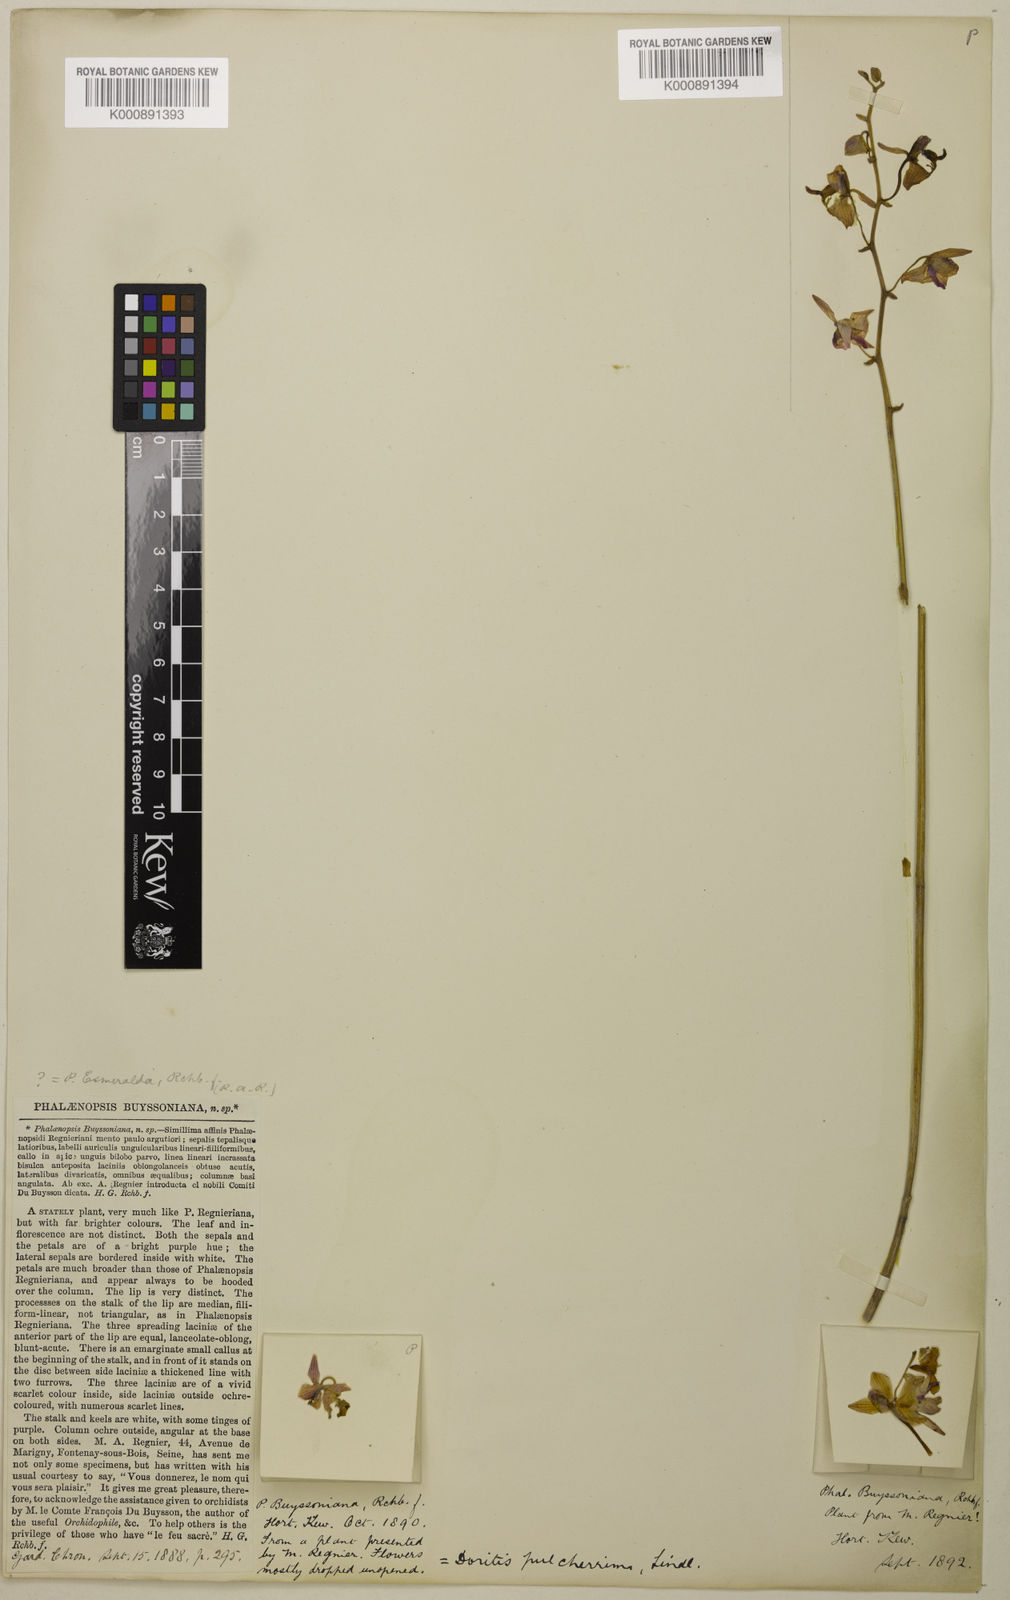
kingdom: Plantae
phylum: Tracheophyta
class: Liliopsida
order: Asparagales
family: Orchidaceae
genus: Phalaenopsis
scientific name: Phalaenopsis pulcherrima
